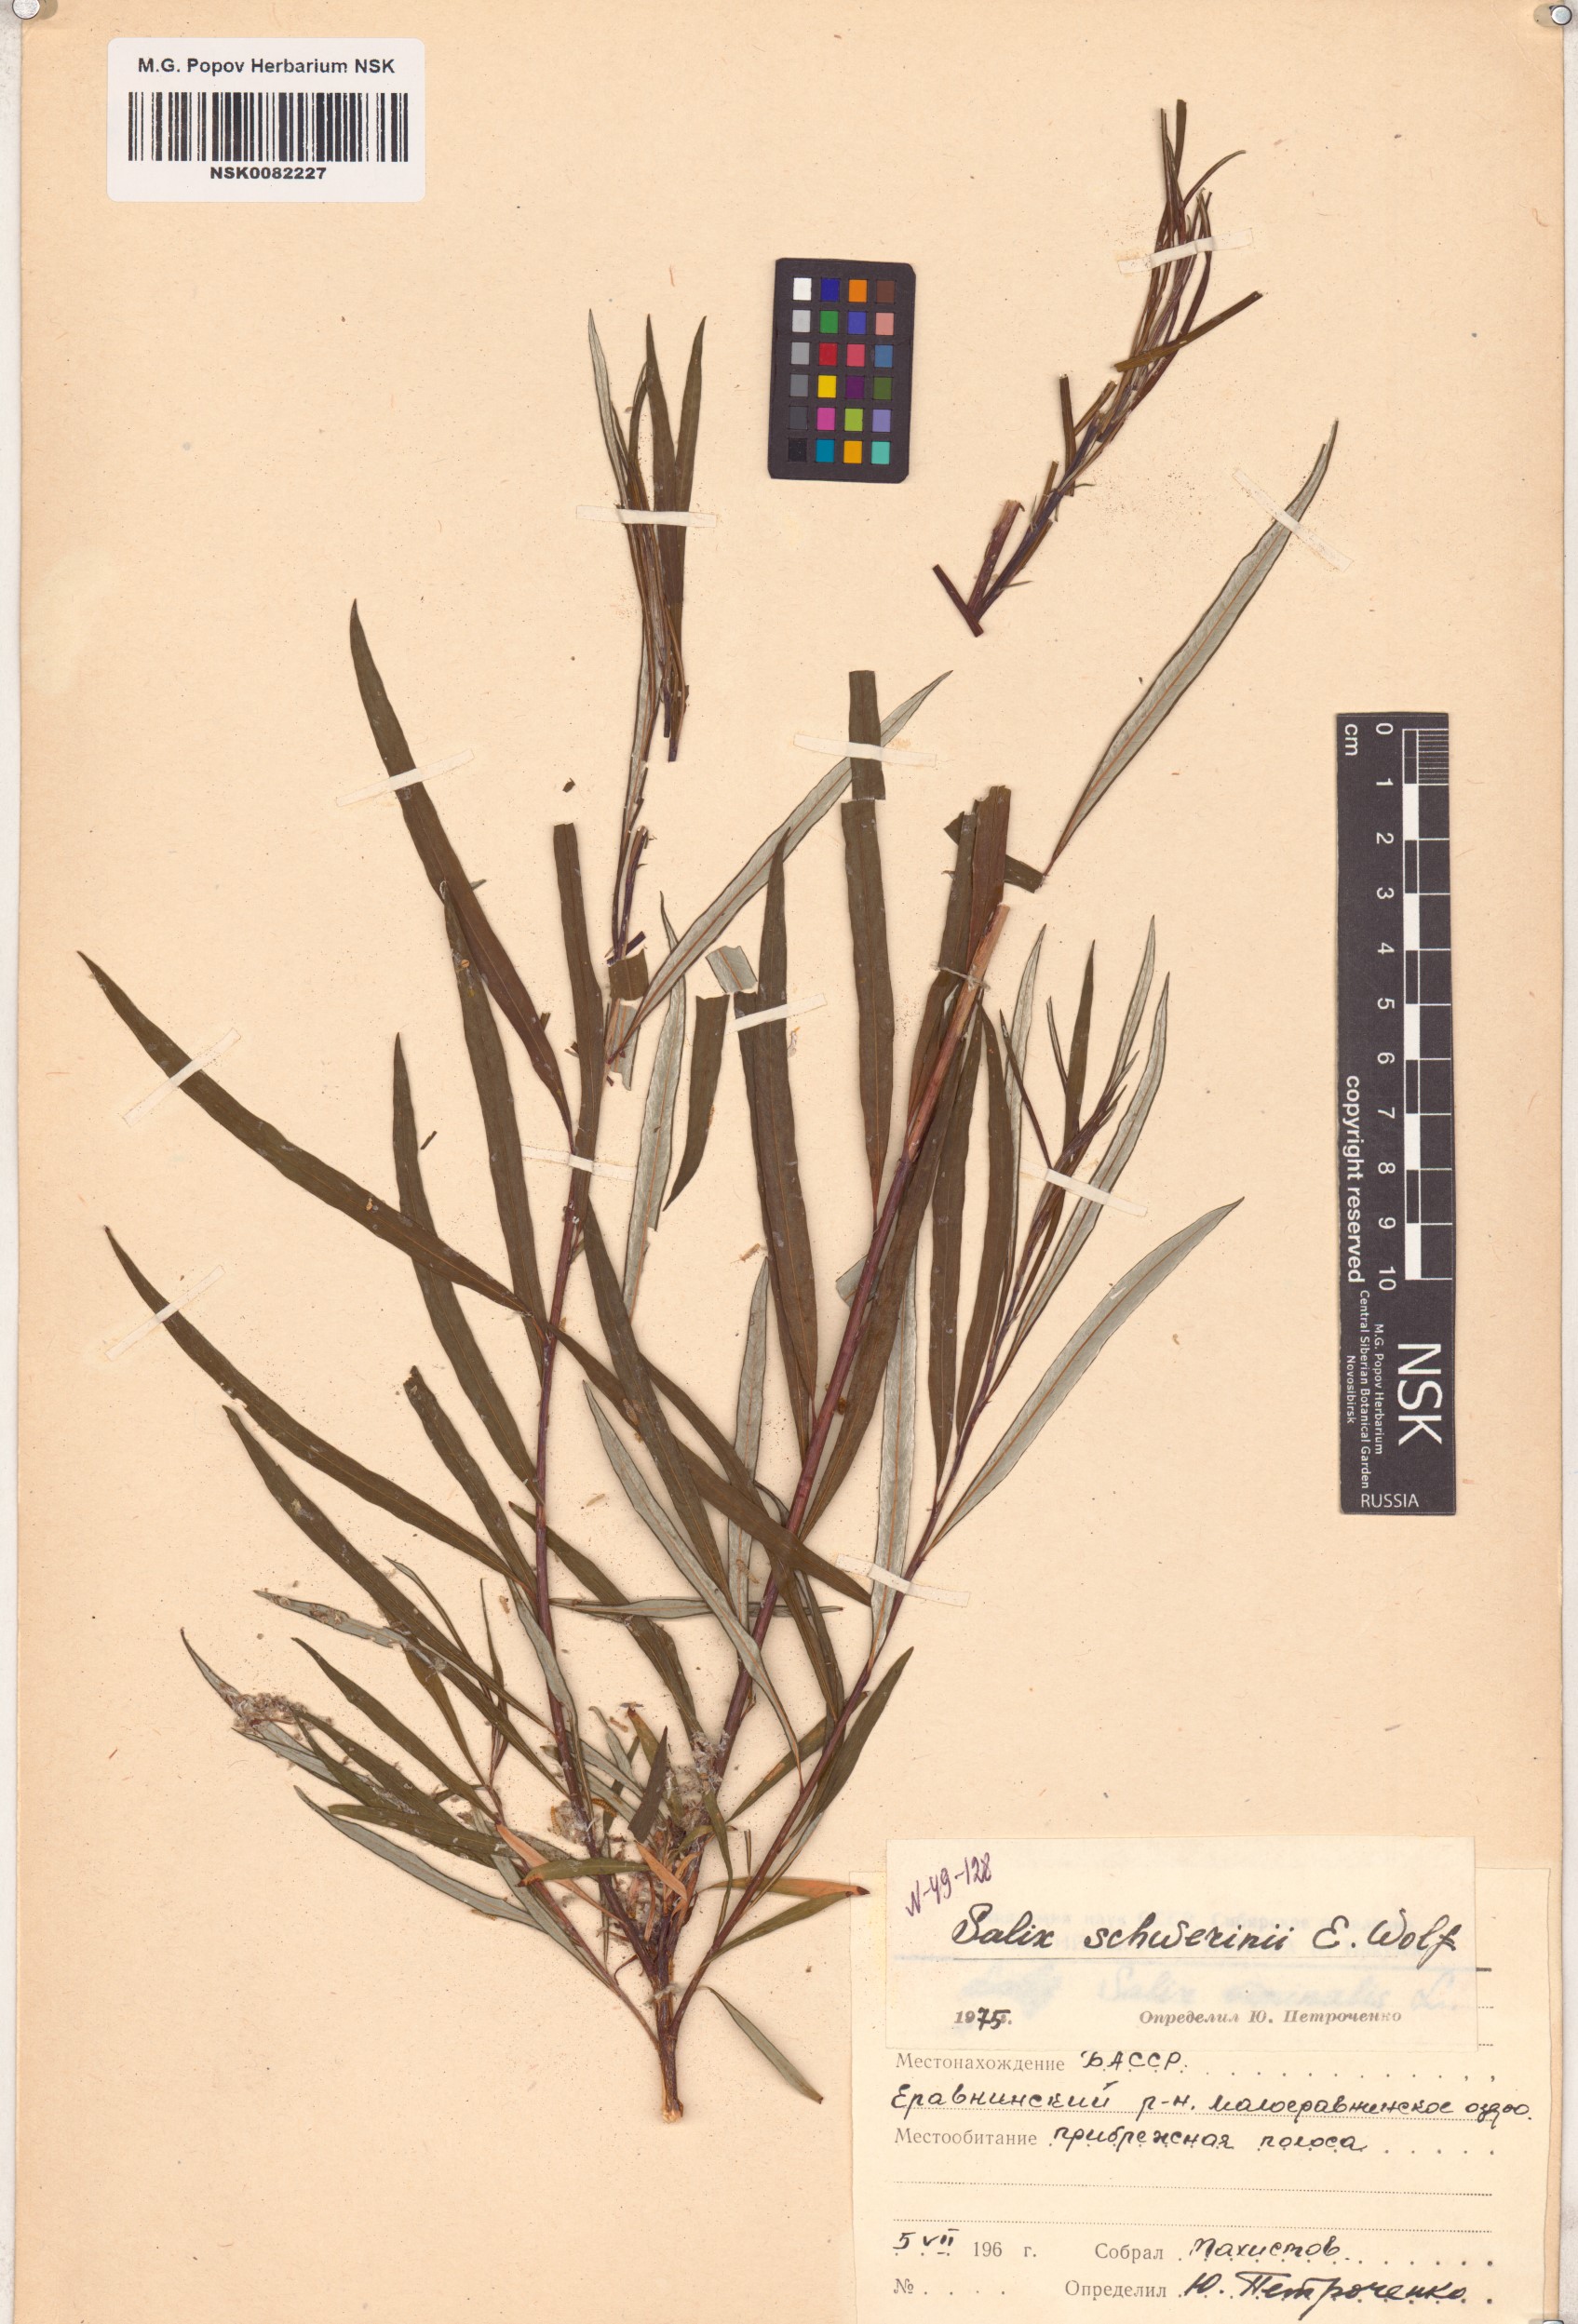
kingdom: Plantae
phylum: Tracheophyta
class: Magnoliopsida
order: Malpighiales
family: Salicaceae
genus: Salix
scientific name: Salix schwerinii
